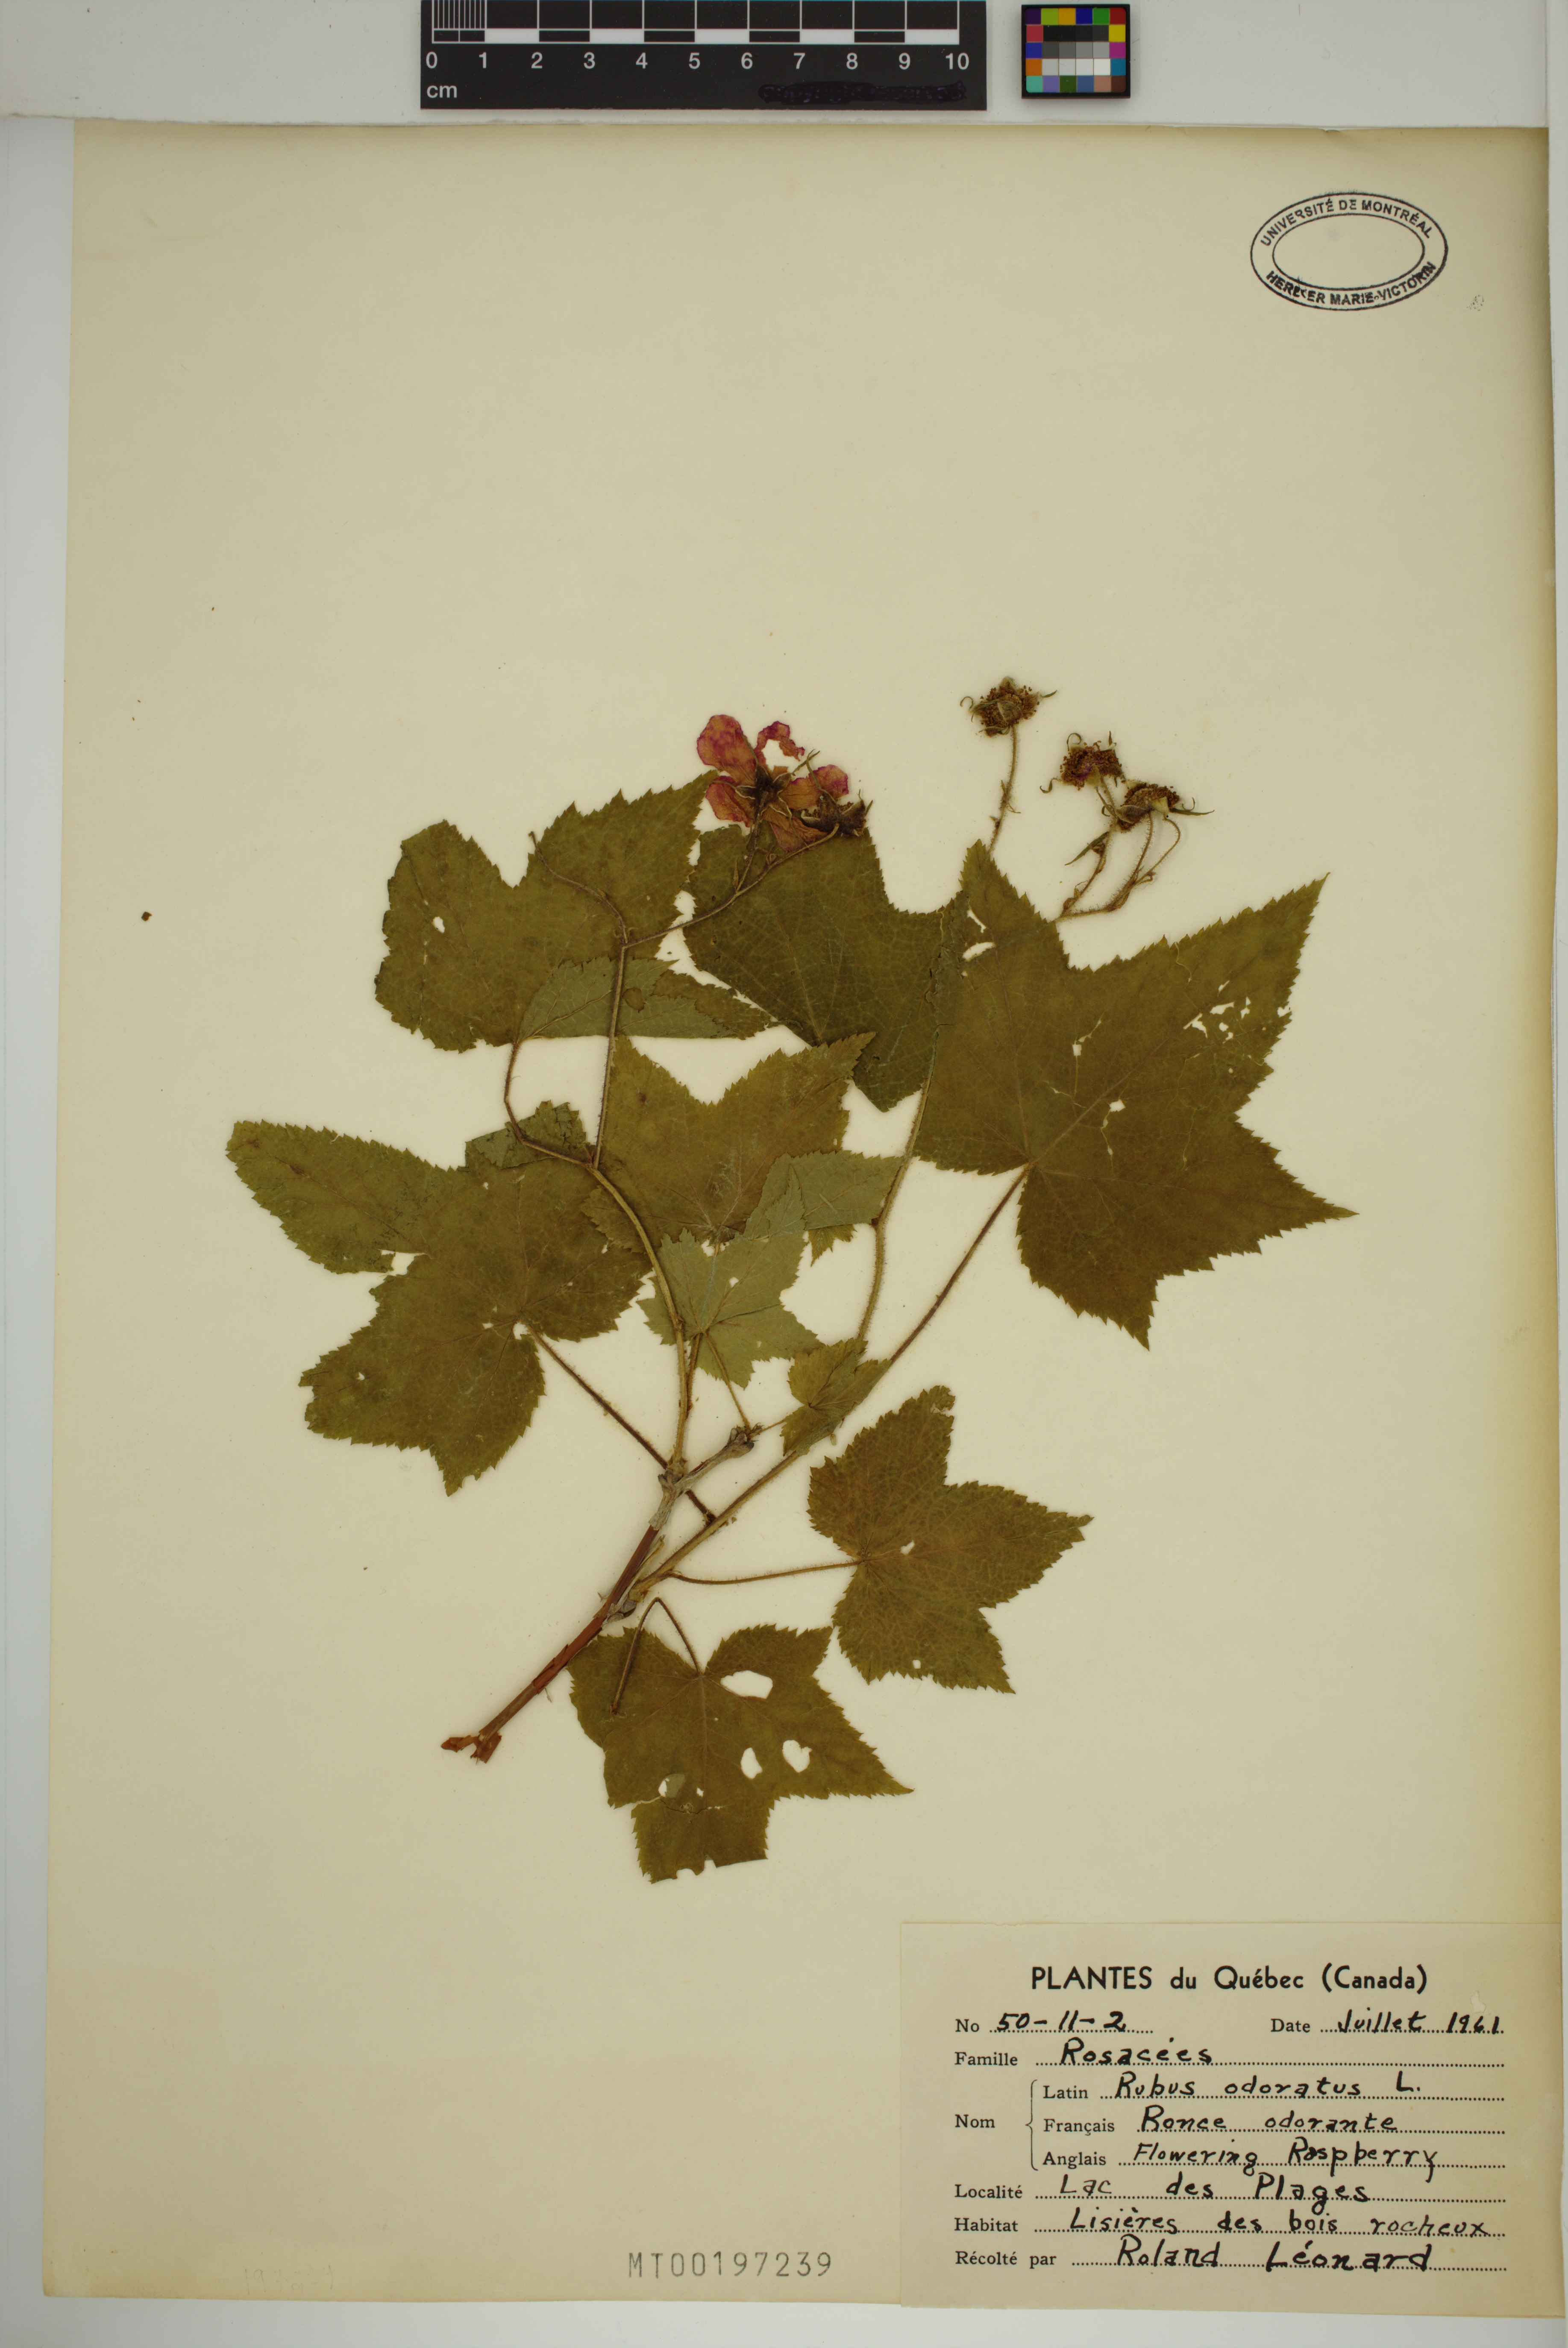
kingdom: Plantae
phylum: Tracheophyta
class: Magnoliopsida
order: Rosales
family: Rosaceae
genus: Rubus
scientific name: Rubus odoratus
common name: Purple-flowered raspberry
